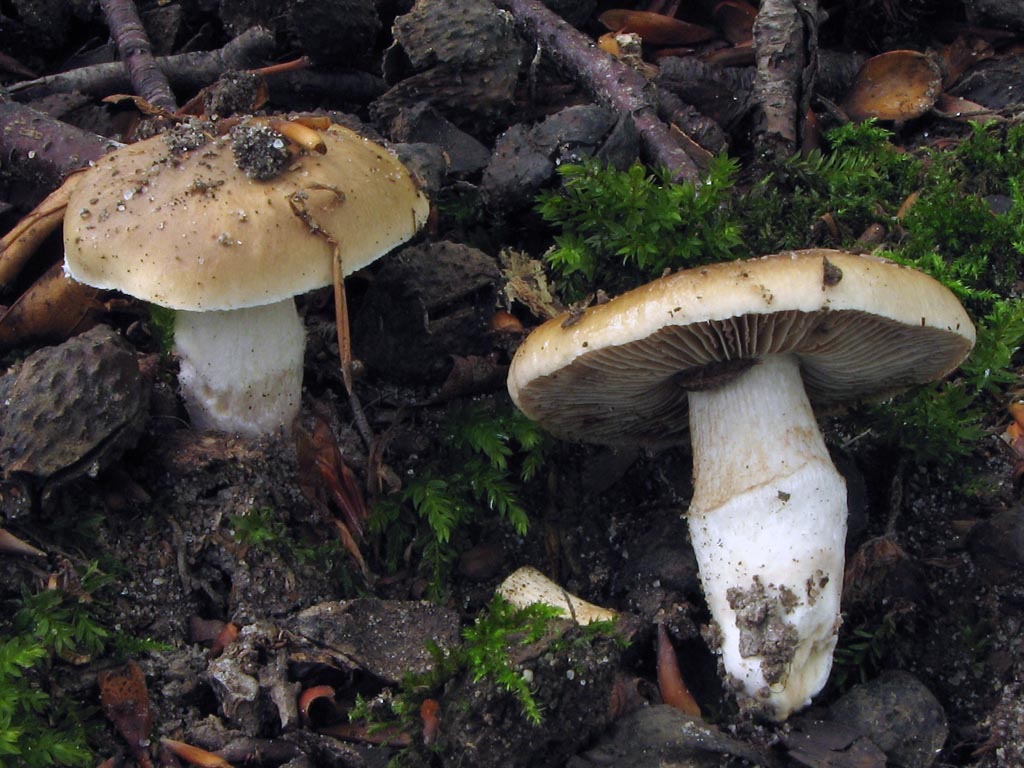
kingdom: Fungi
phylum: Basidiomycota
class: Agaricomycetes
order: Agaricales
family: Cortinariaceae
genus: Cortinarius
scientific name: Cortinarius elatior
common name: høj slørhat
